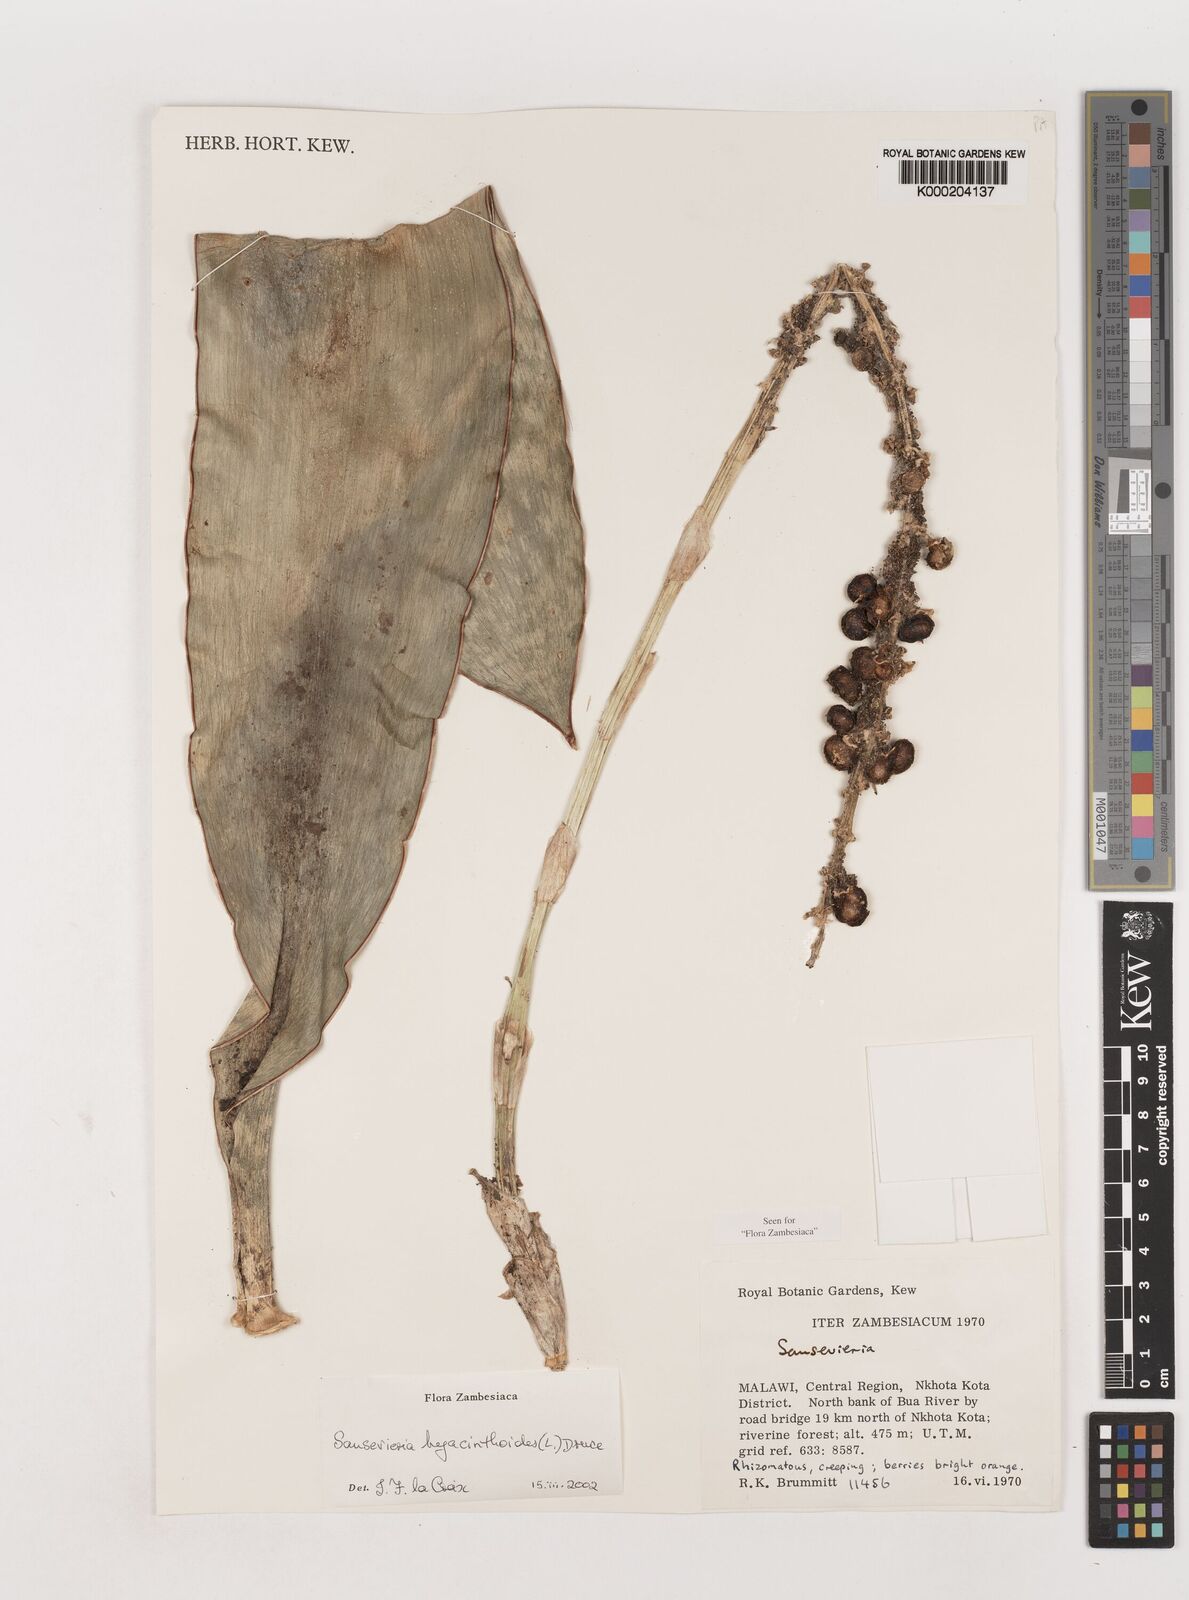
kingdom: Plantae
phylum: Tracheophyta
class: Liliopsida
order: Asparagales
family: Asparagaceae
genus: Dracaena
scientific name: Dracaena hyacinthoides
